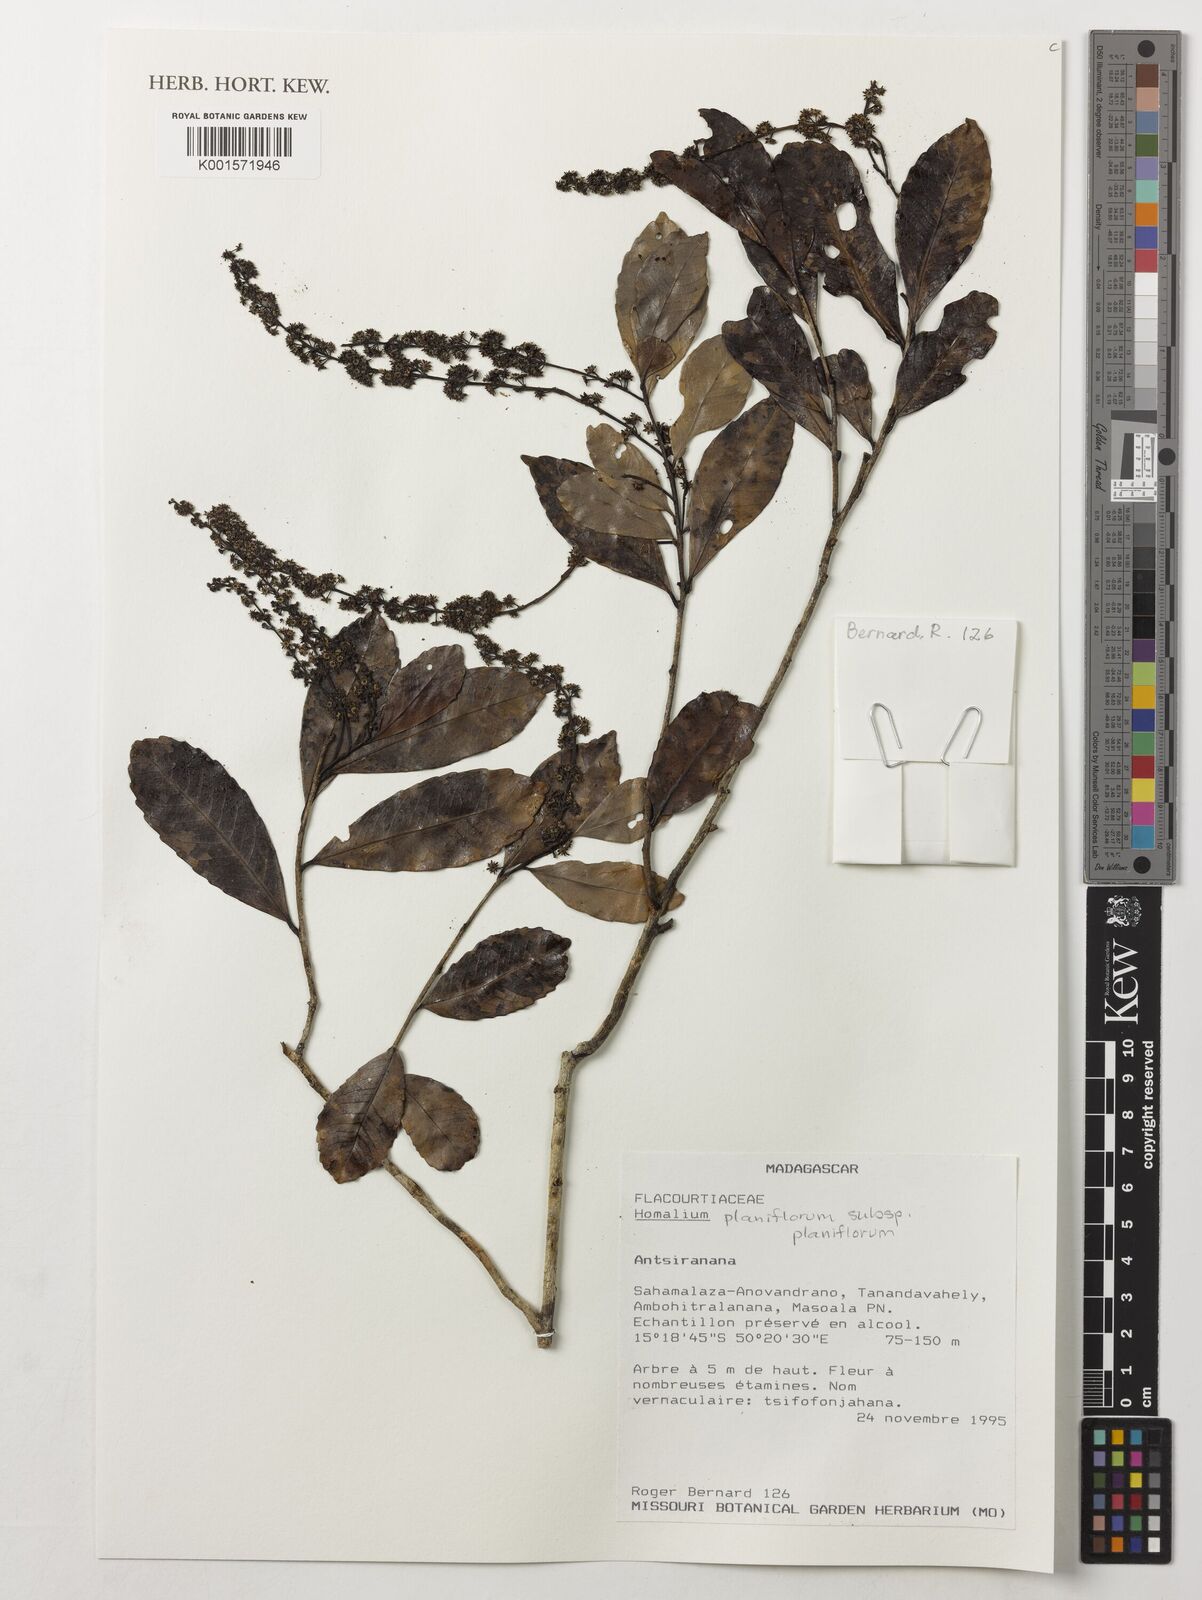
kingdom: Plantae
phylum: Tracheophyta
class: Magnoliopsida
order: Malpighiales
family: Salicaceae
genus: Homalium
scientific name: Homalium planiflorum
